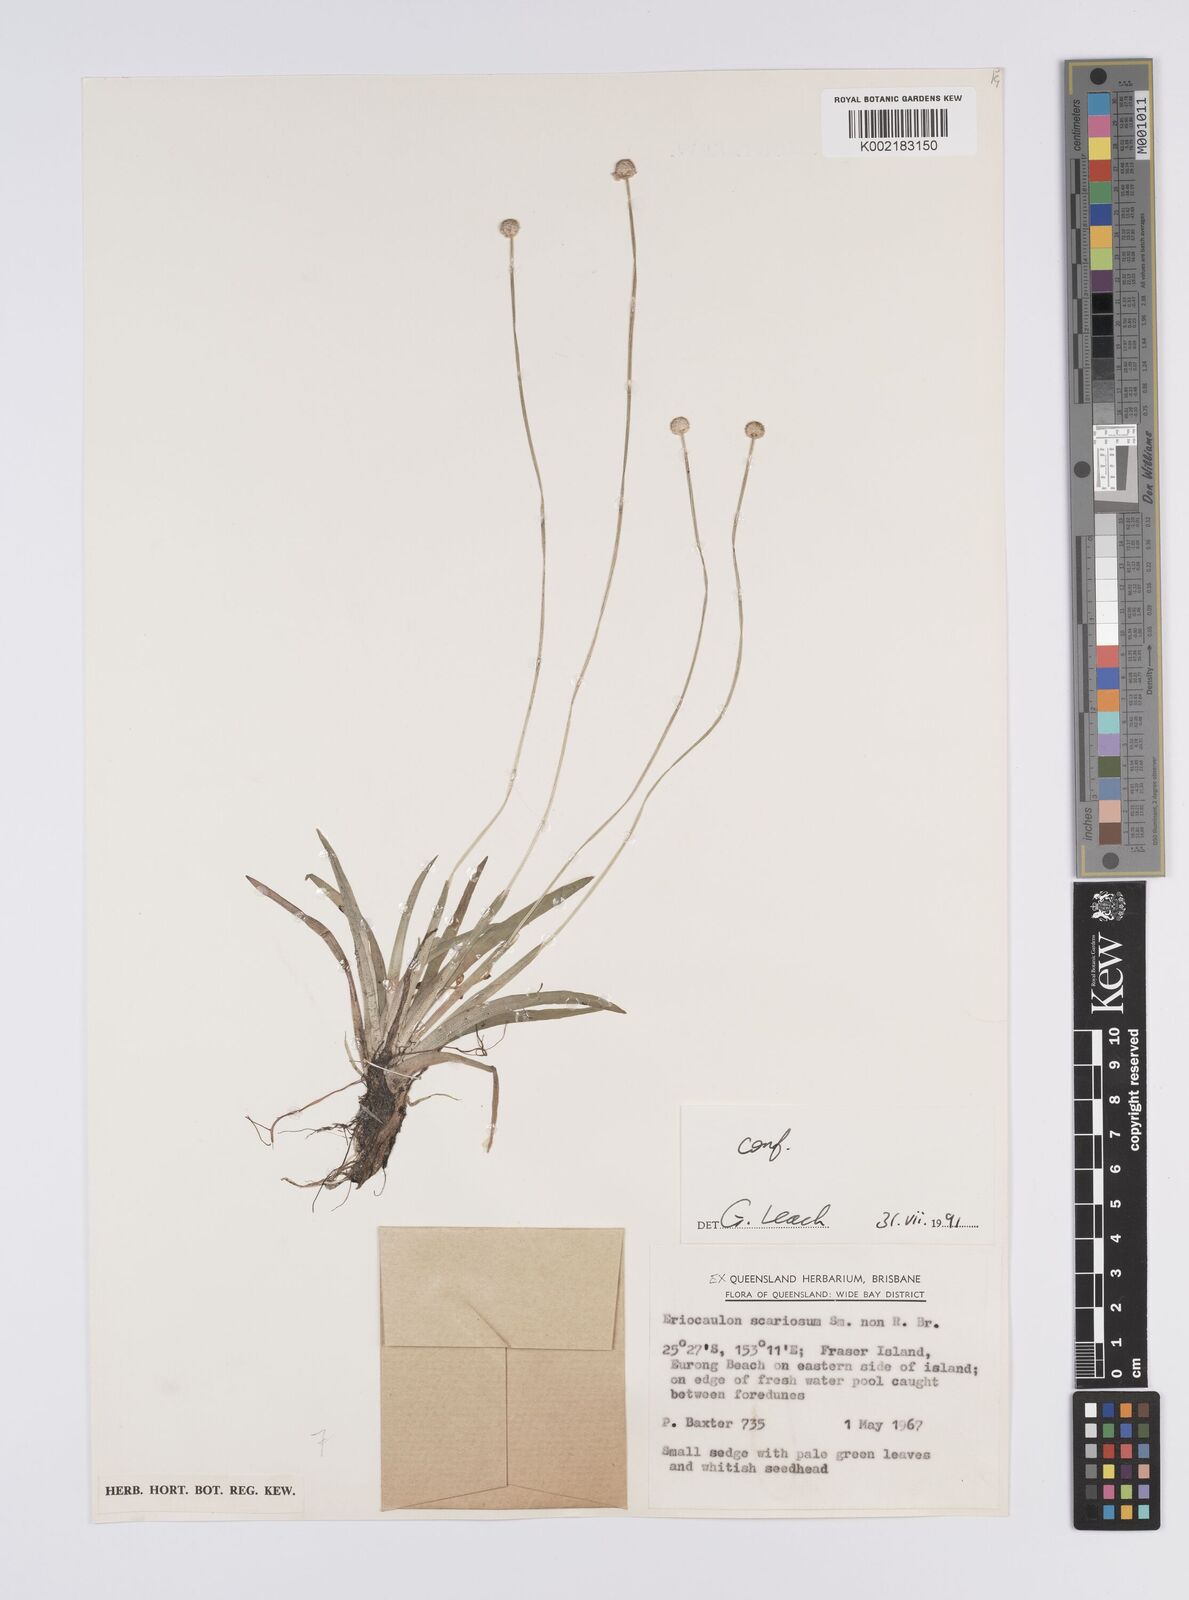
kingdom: Plantae
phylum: Tracheophyta
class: Liliopsida
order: Poales
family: Eriocaulaceae
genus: Eriocaulon
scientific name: Eriocaulon scariosum
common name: Rough pipewort
